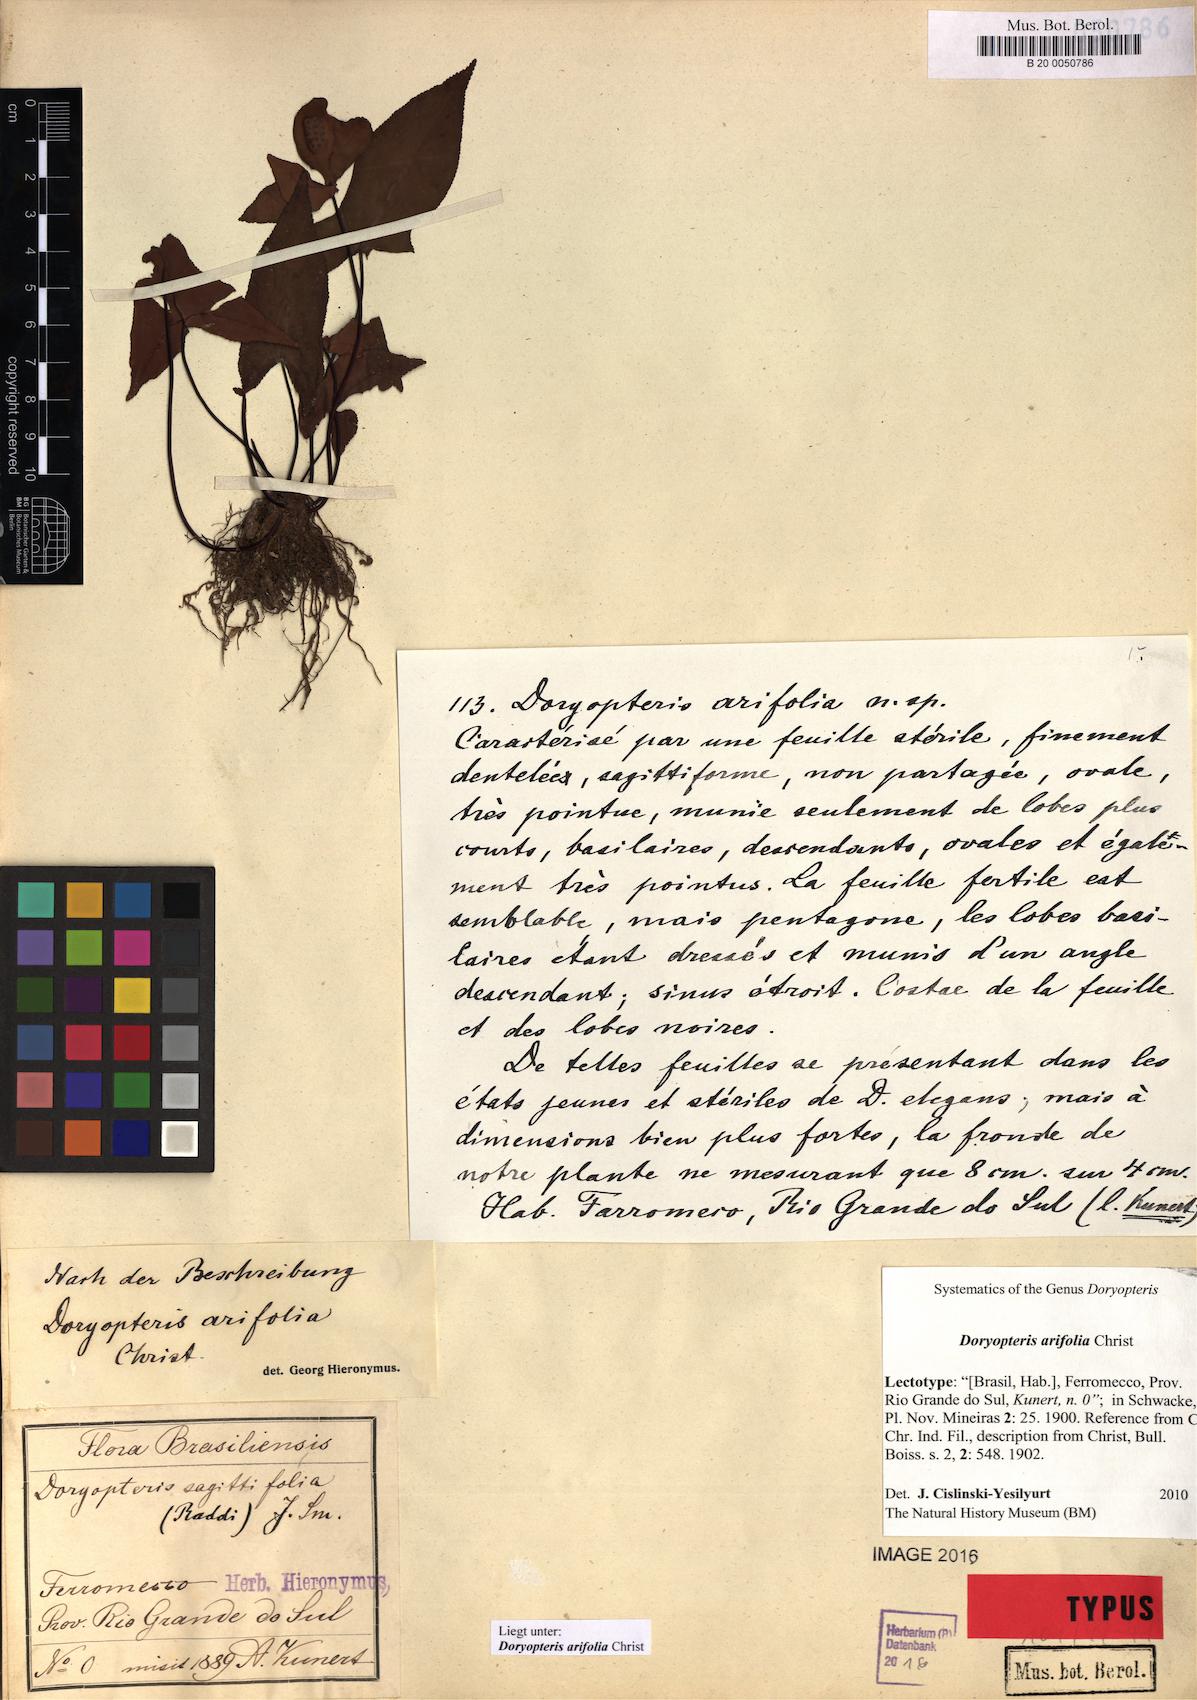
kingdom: Plantae
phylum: Tracheophyta
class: Polypodiopsida
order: Polypodiales
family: Pteridaceae
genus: Doryopteris
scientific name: Doryopteris nobilis
